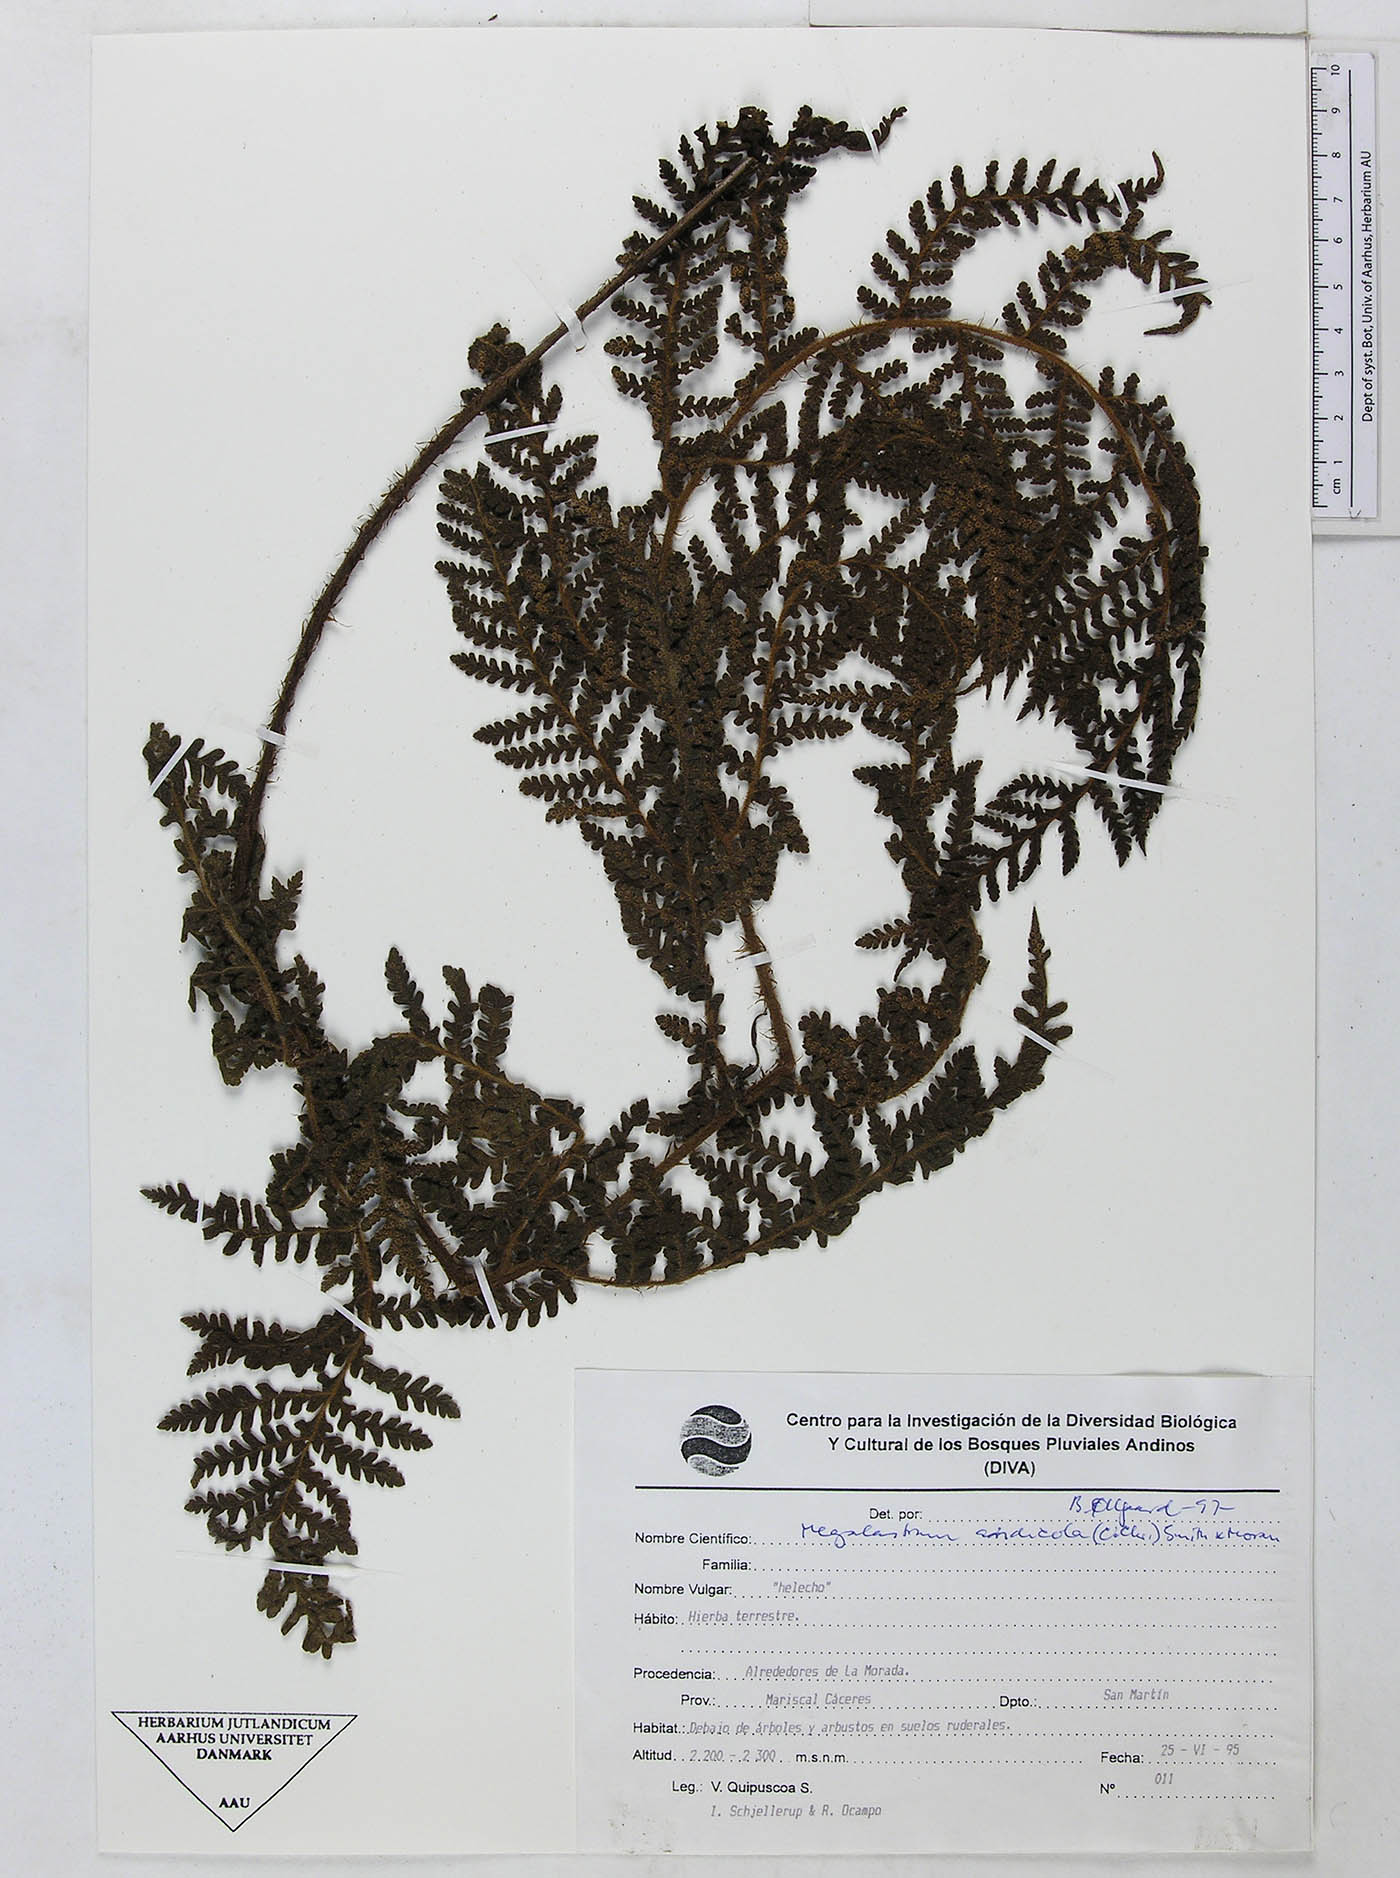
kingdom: Plantae
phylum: Tracheophyta
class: Polypodiopsida
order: Polypodiales
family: Dryopteridaceae
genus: Megalastrum
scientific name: Megalastrum insigne
